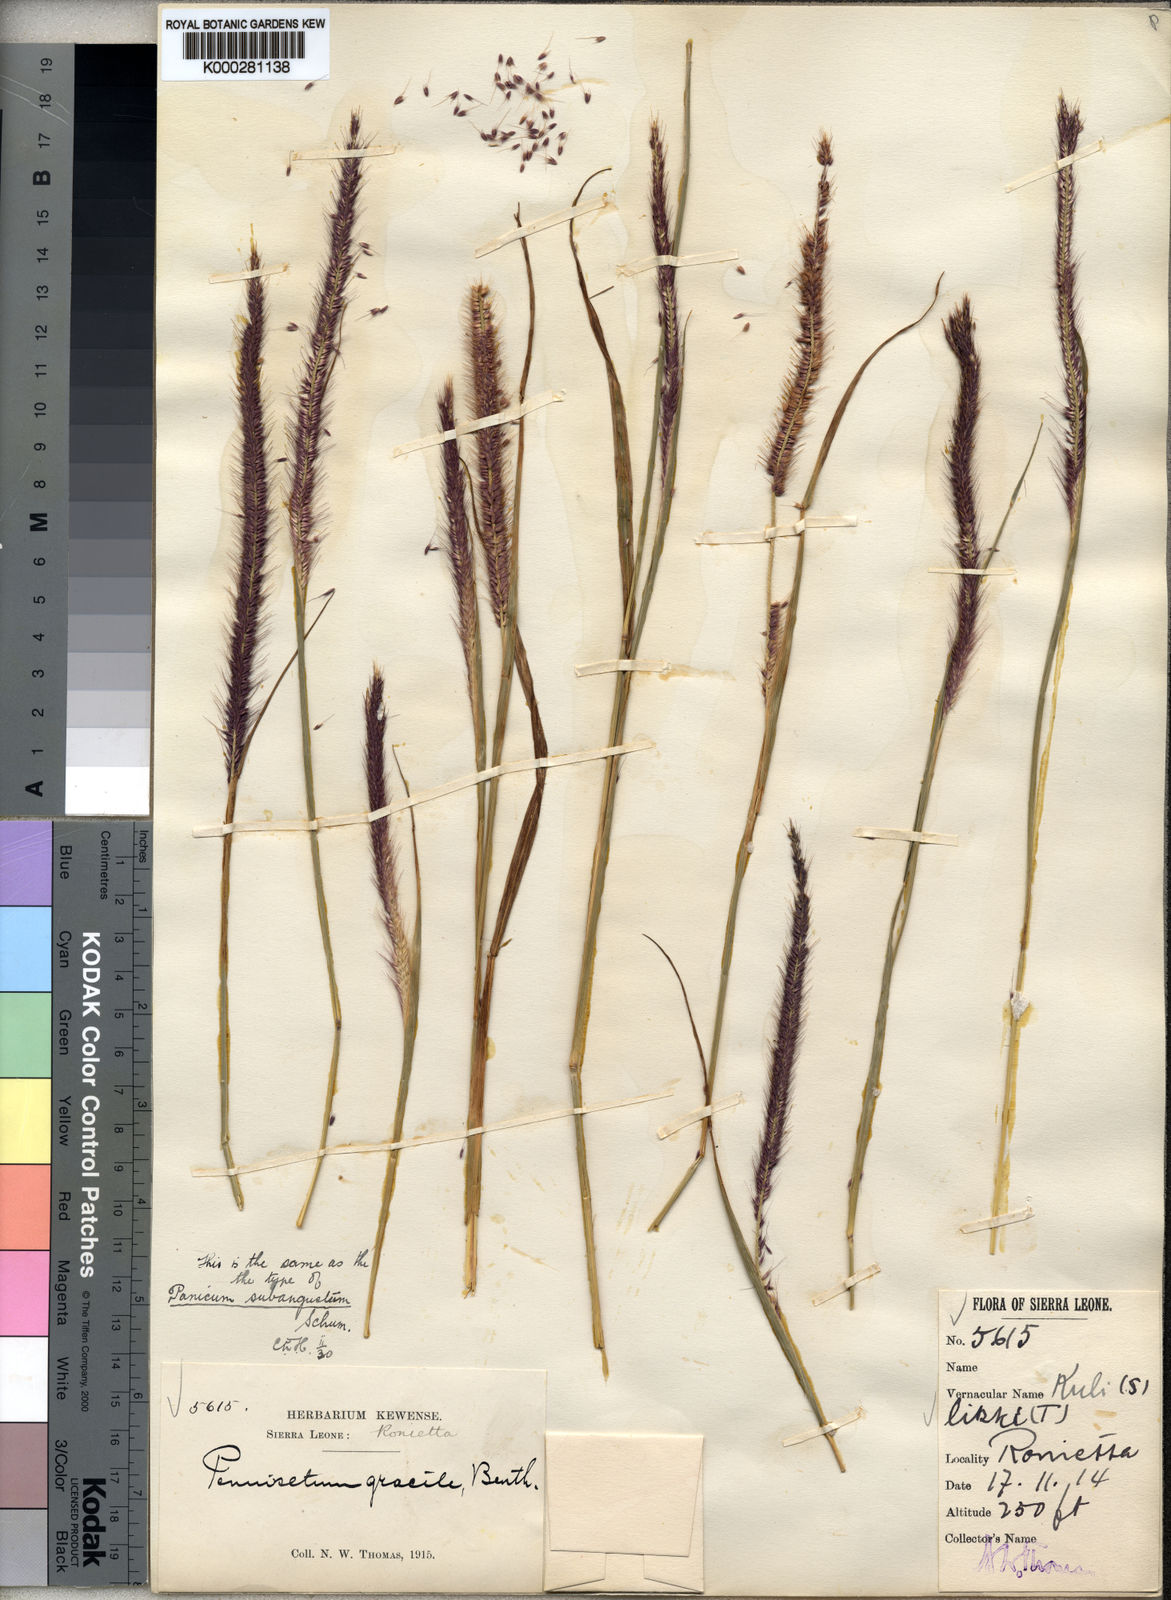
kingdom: Plantae
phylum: Tracheophyta
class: Liliopsida
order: Poales
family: Poaceae
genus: Setaria
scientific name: Setaria parviflora
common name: Knotroot bristle-grass
